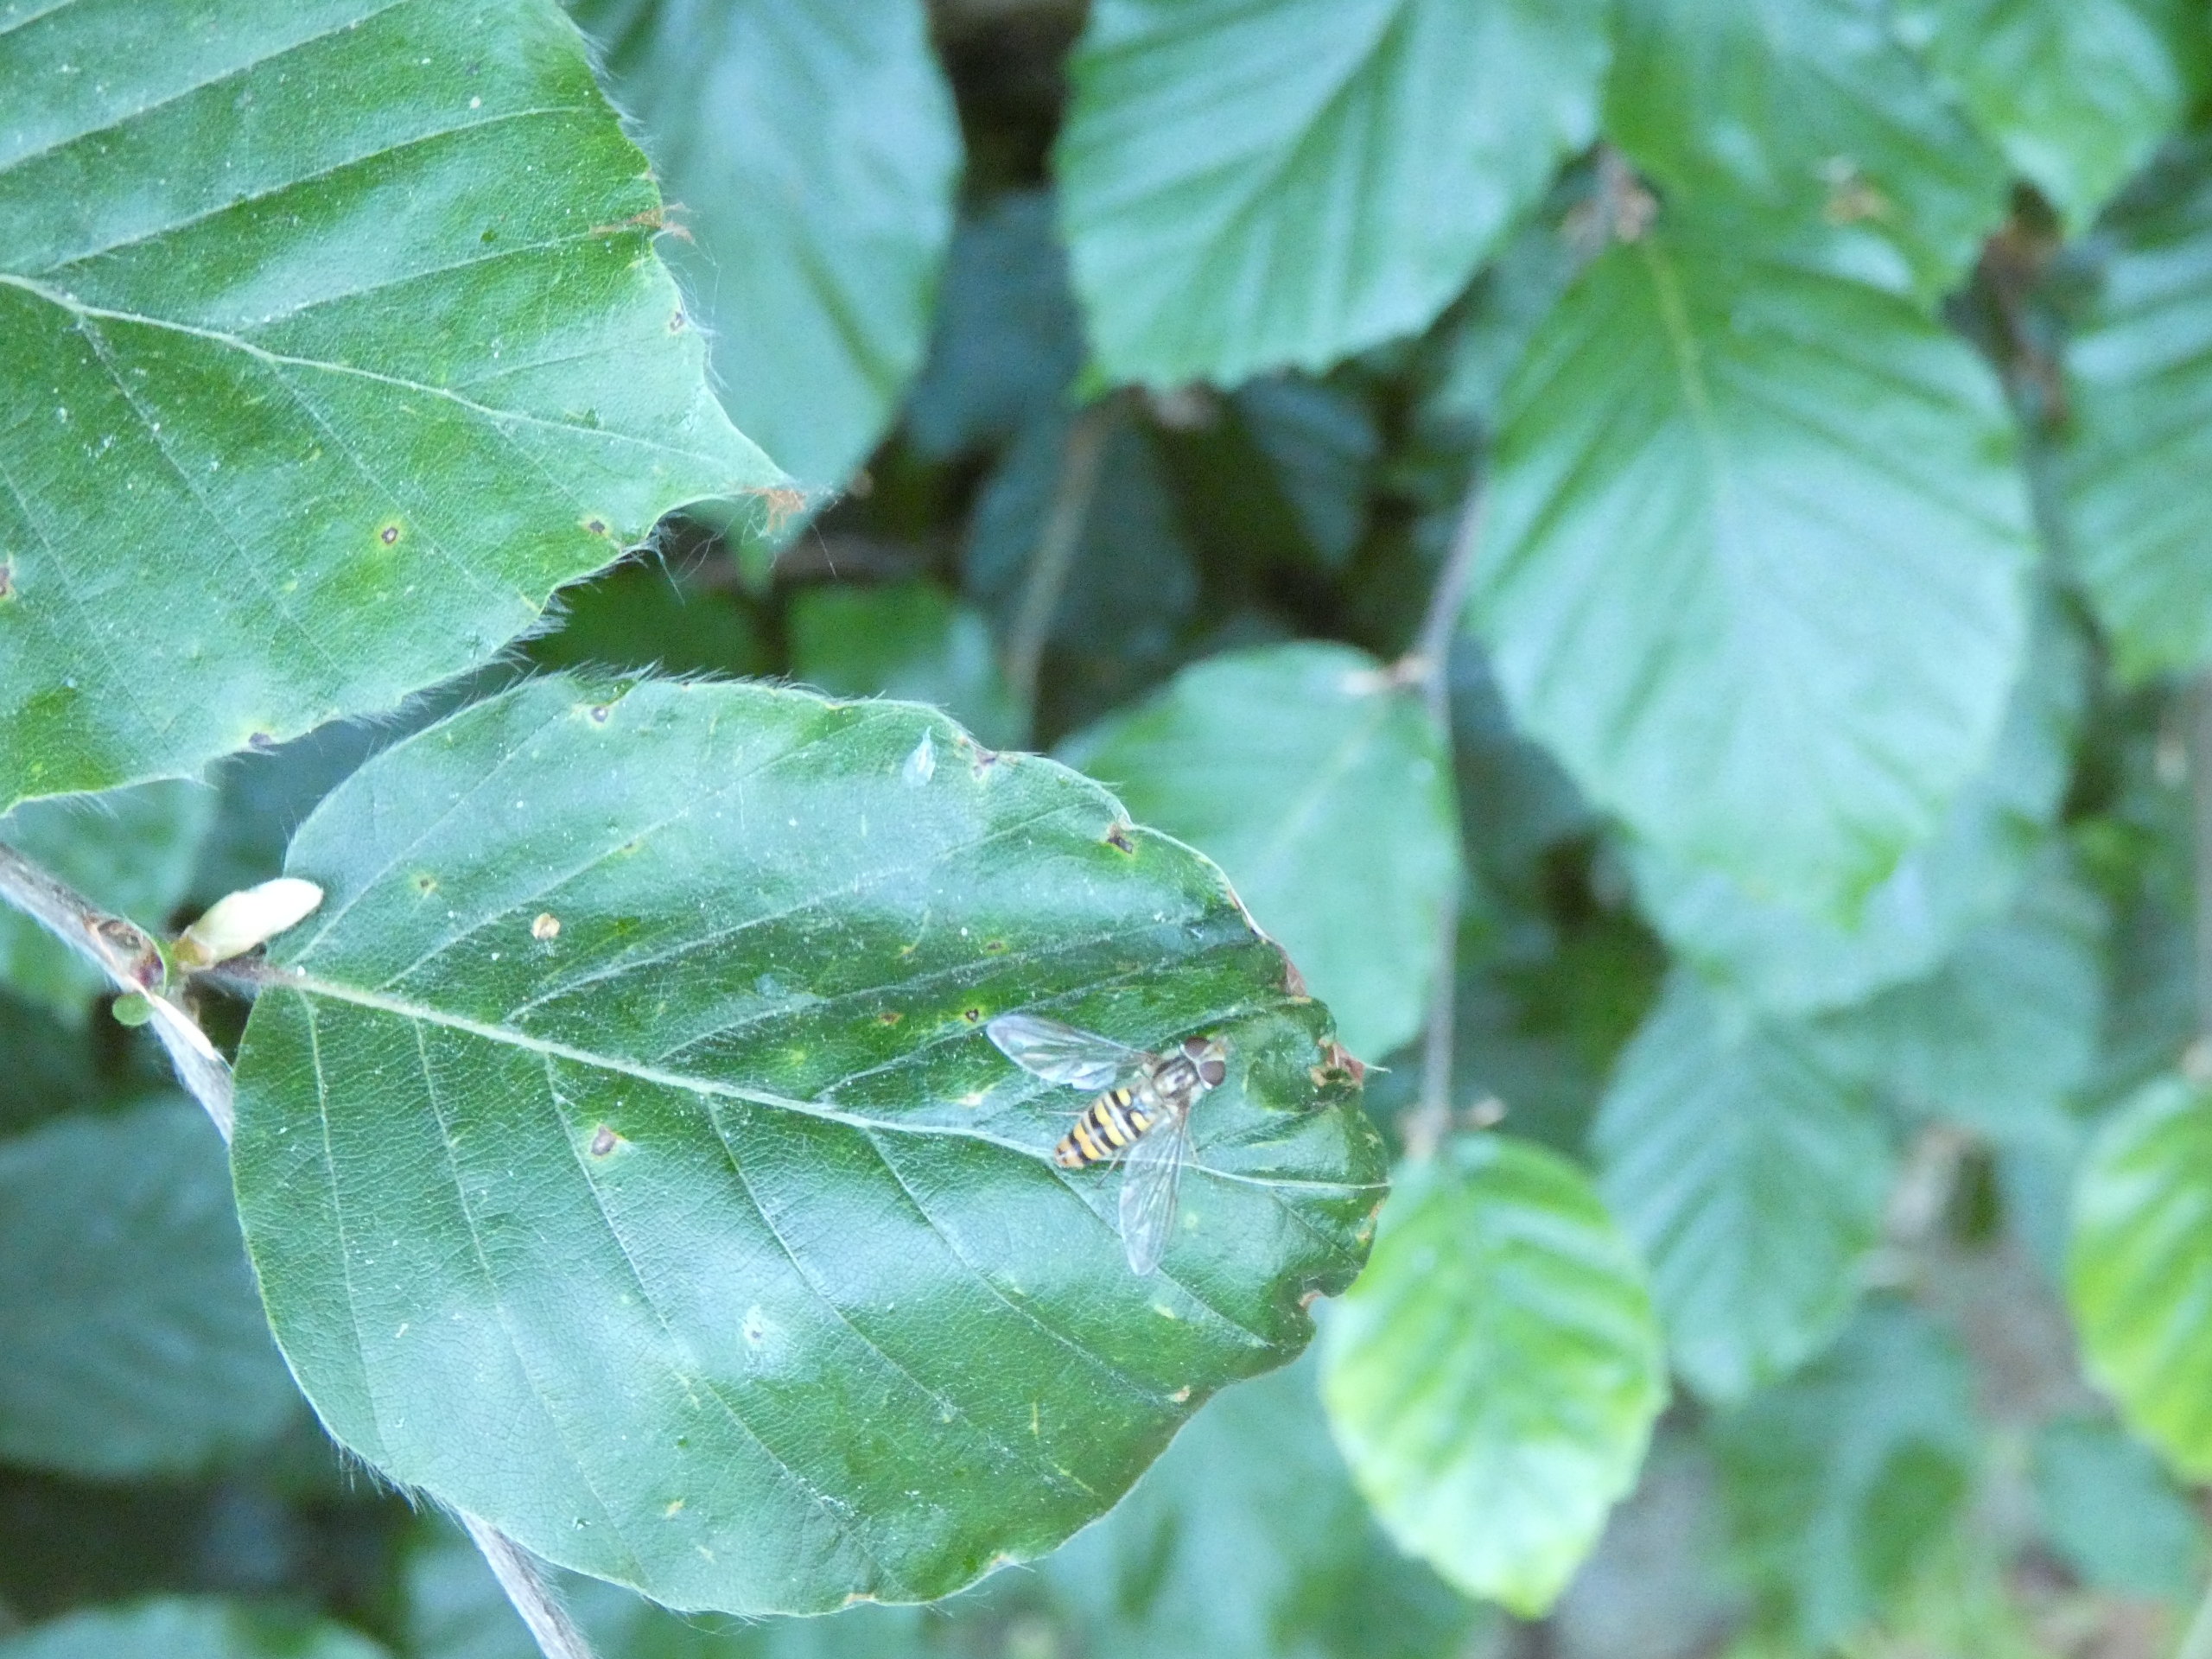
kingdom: Animalia
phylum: Arthropoda
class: Insecta
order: Diptera
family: Syrphidae
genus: Episyrphus
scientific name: Episyrphus balteatus
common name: Dobbeltbåndet svirreflue
